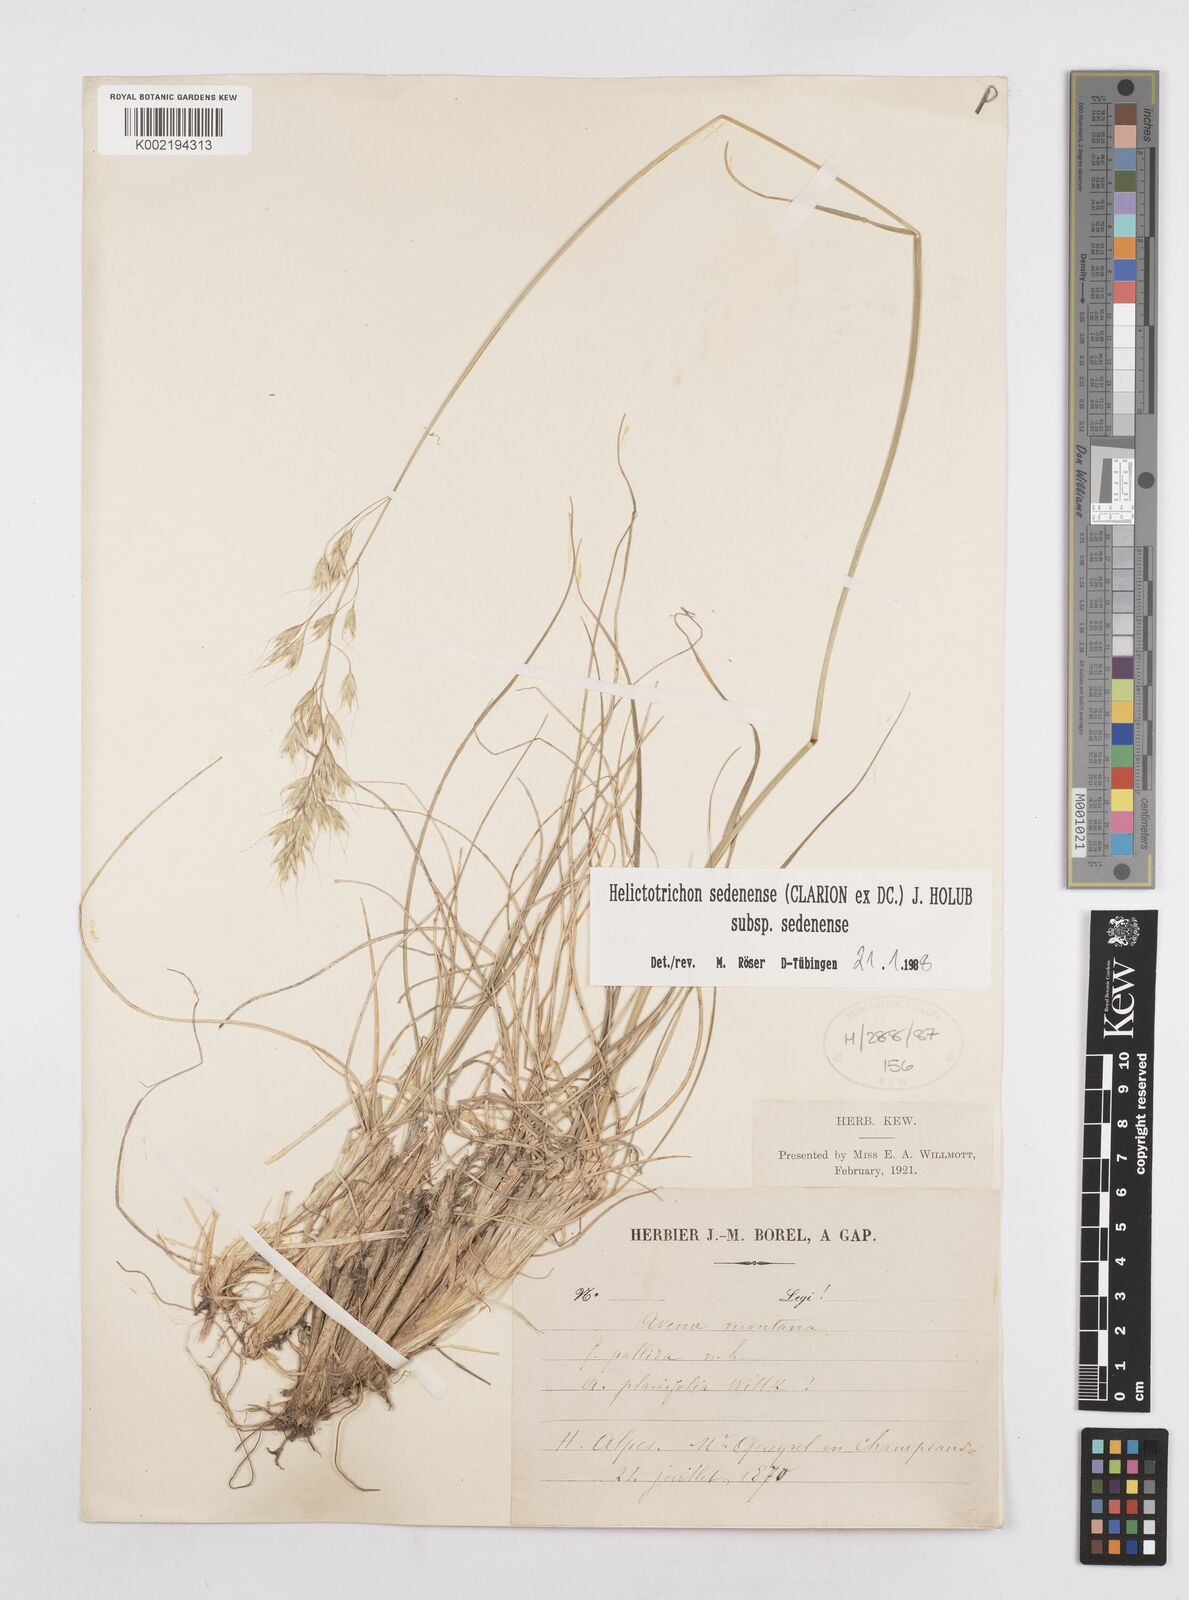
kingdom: Plantae
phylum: Tracheophyta
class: Liliopsida
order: Poales
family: Poaceae
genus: Helictotrichon
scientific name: Helictotrichon sedenense
